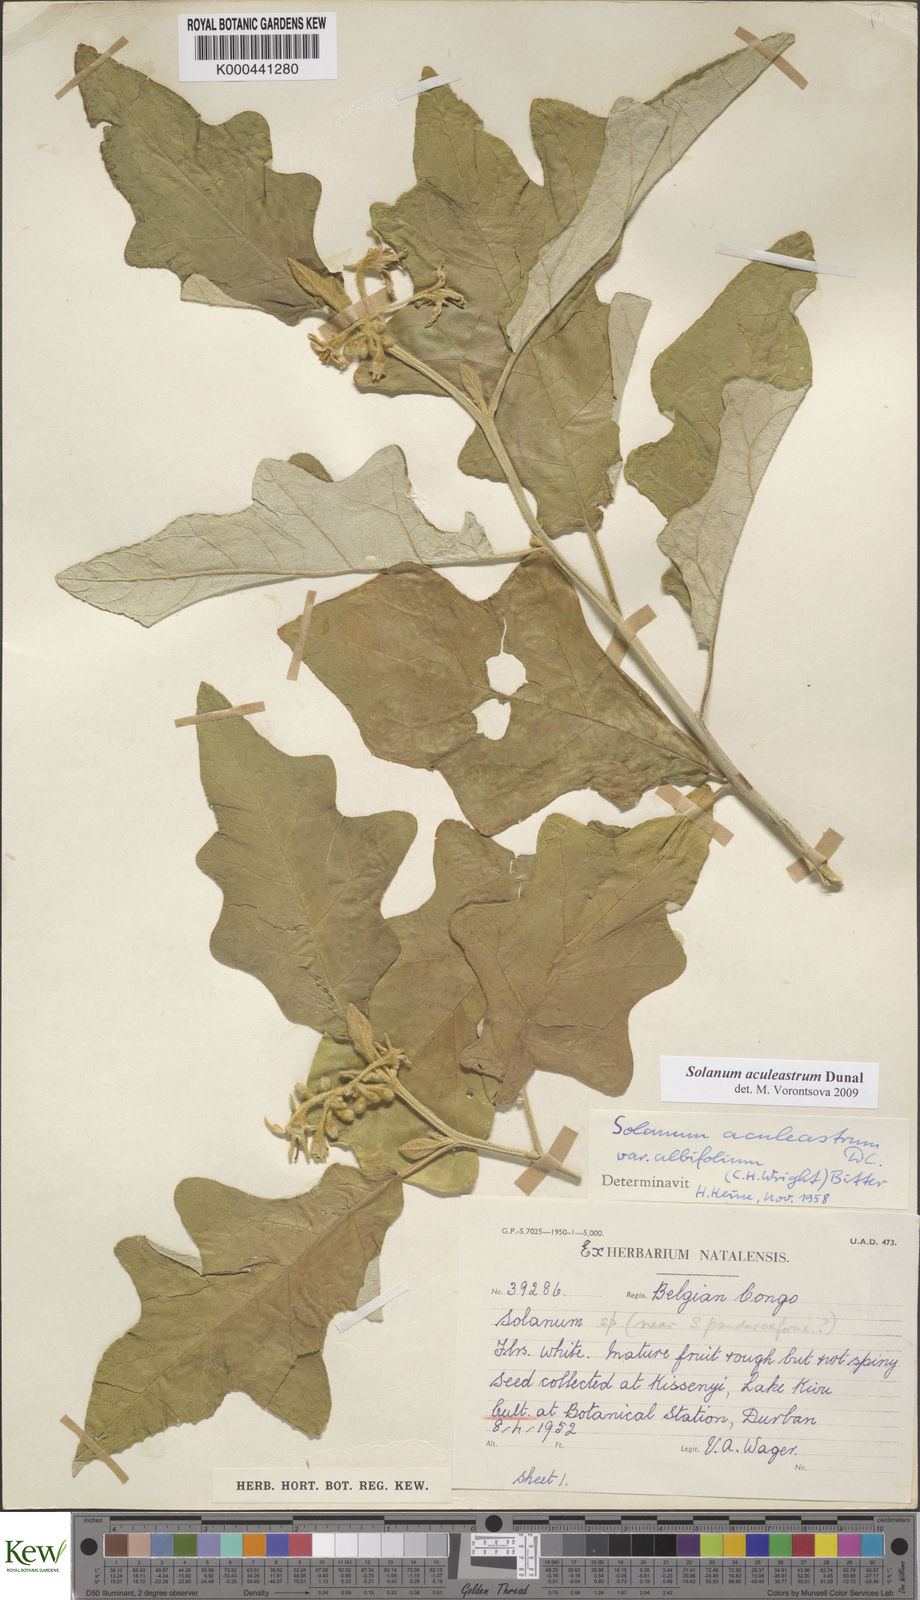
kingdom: Plantae
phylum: Tracheophyta
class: Magnoliopsida
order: Solanales
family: Solanaceae
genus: Solanum
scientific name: Solanum aculeastrum
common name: Goat bitter-apple
